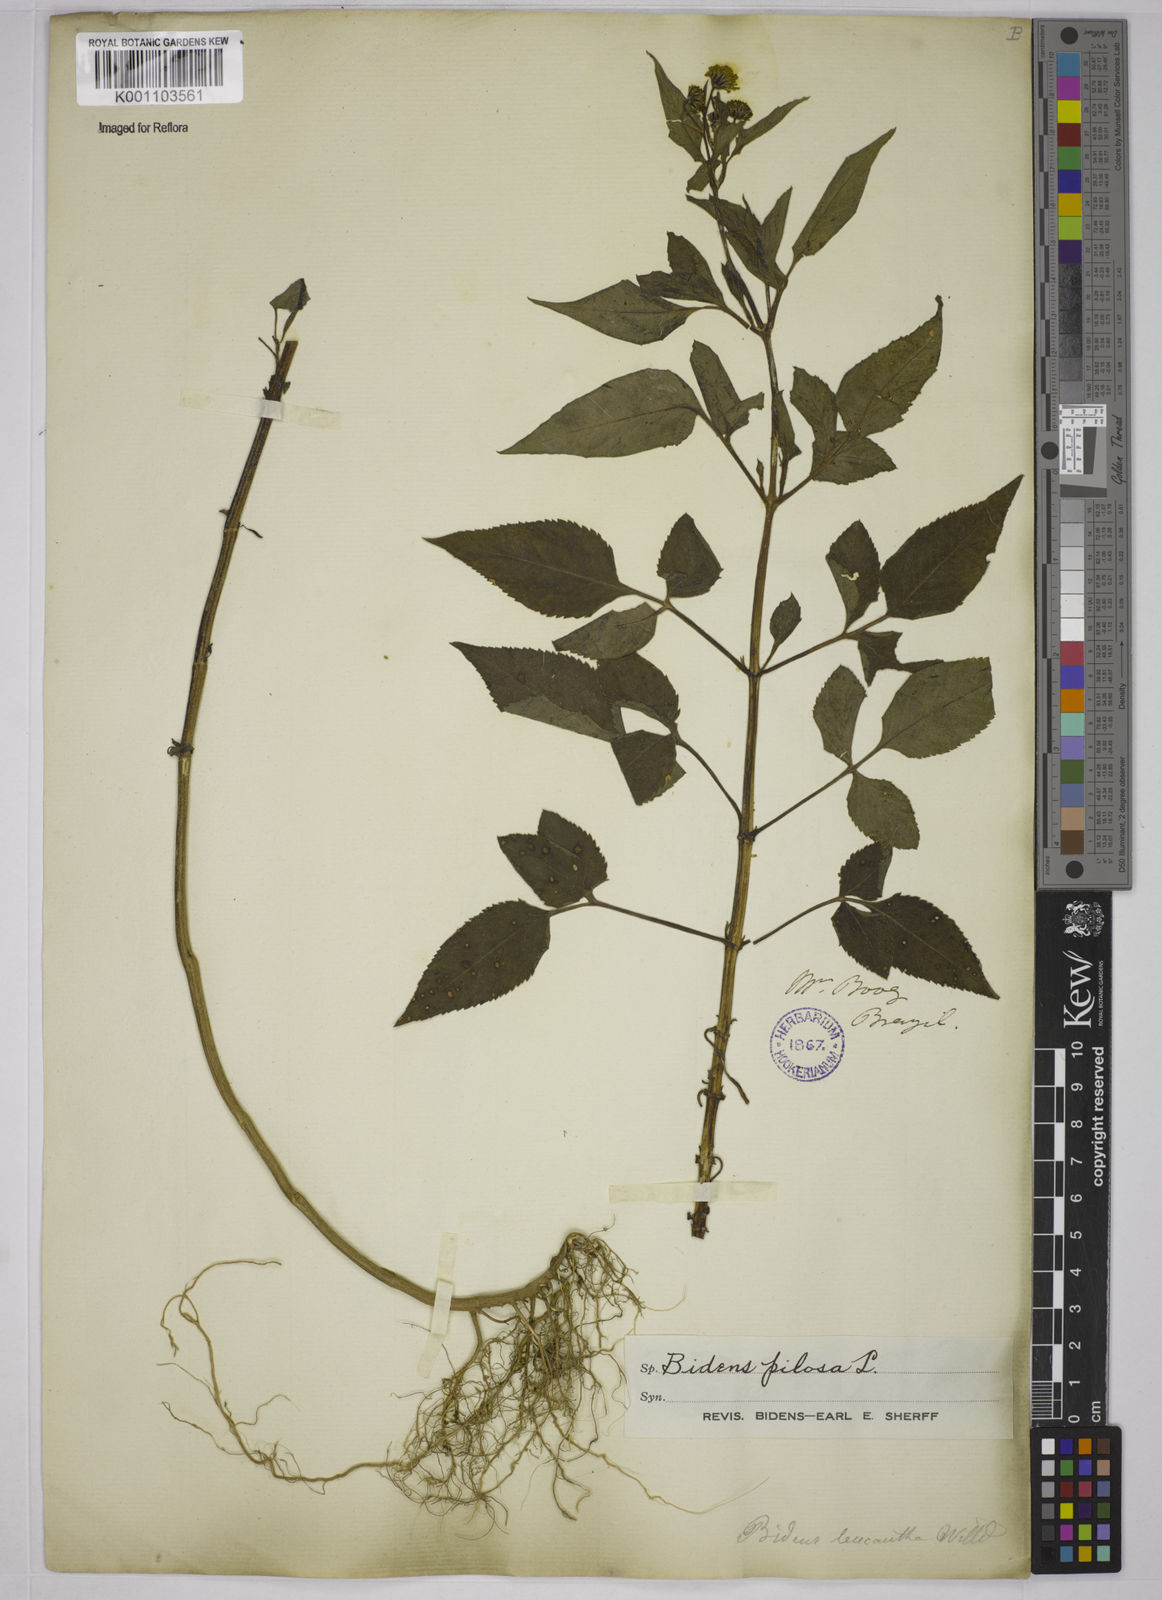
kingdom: Plantae
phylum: Tracheophyta
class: Magnoliopsida
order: Asterales
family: Asteraceae
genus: Bidens
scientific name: Bidens pilosa
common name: Black-jack
